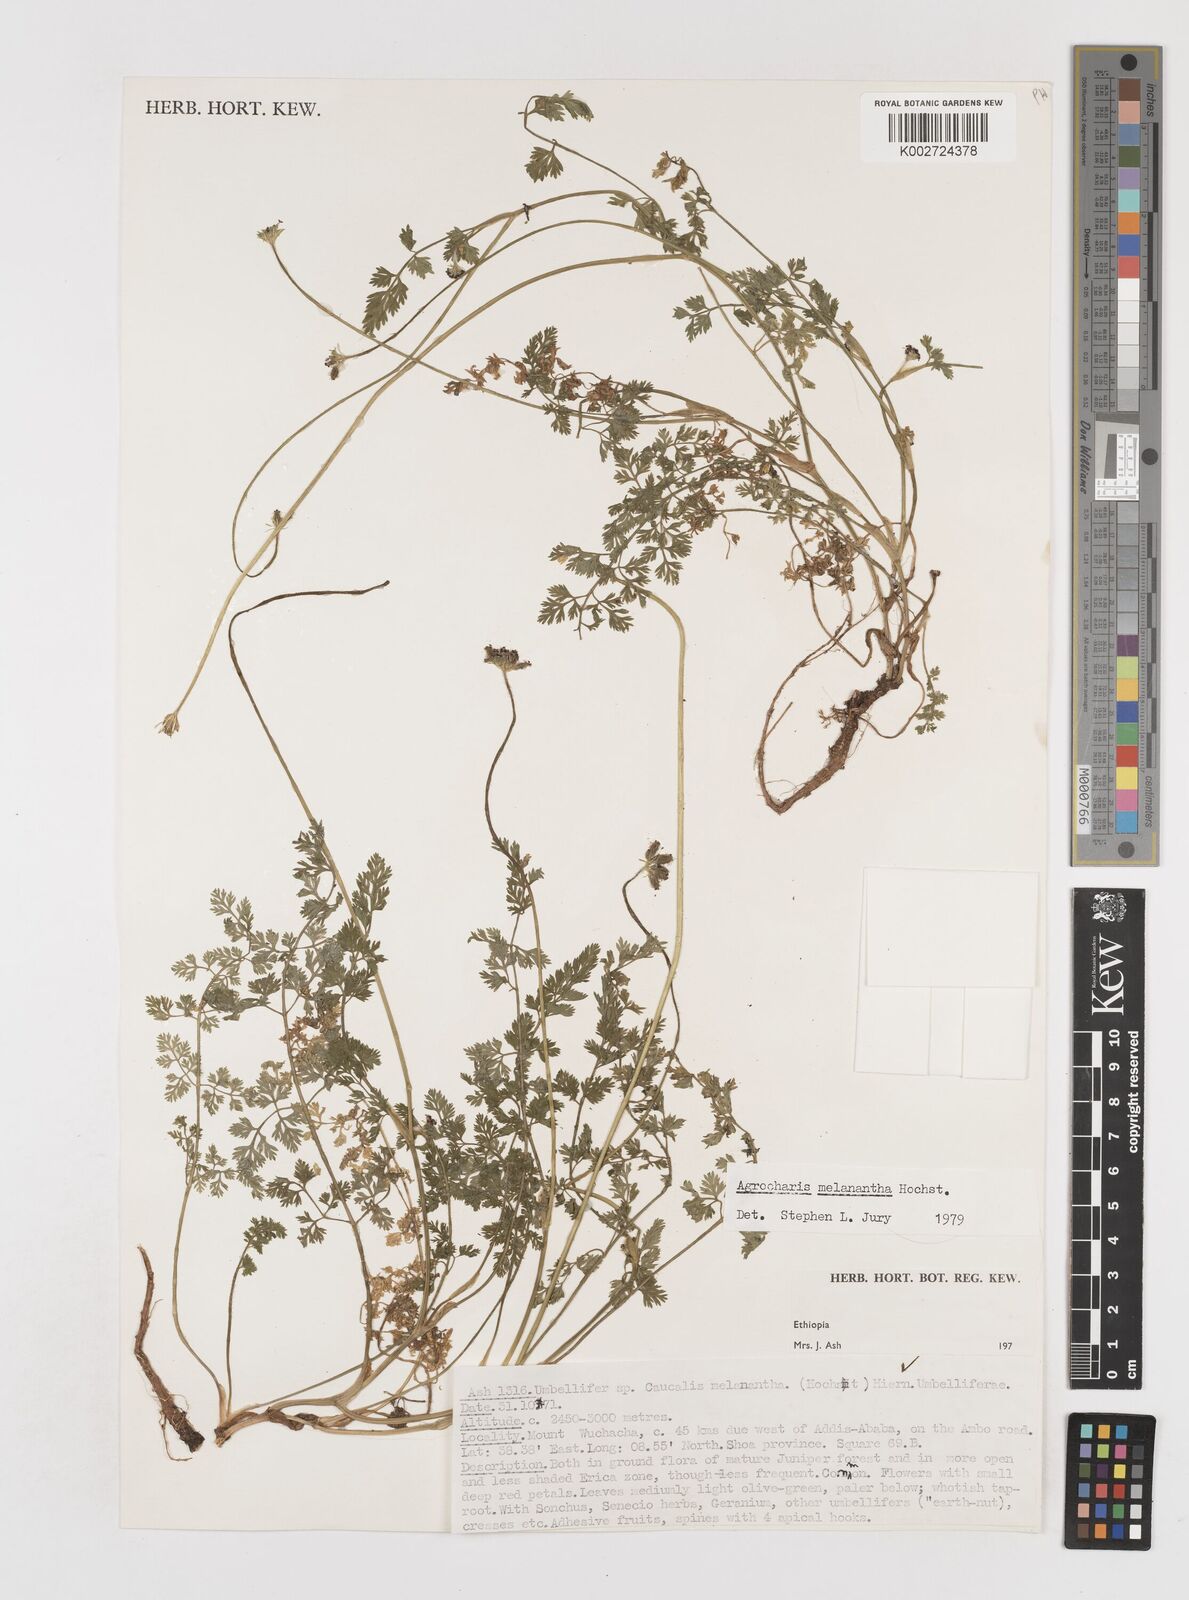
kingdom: Plantae
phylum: Tracheophyta
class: Magnoliopsida
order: Apiales
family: Apiaceae
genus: Daucus
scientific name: Daucus melananthus
